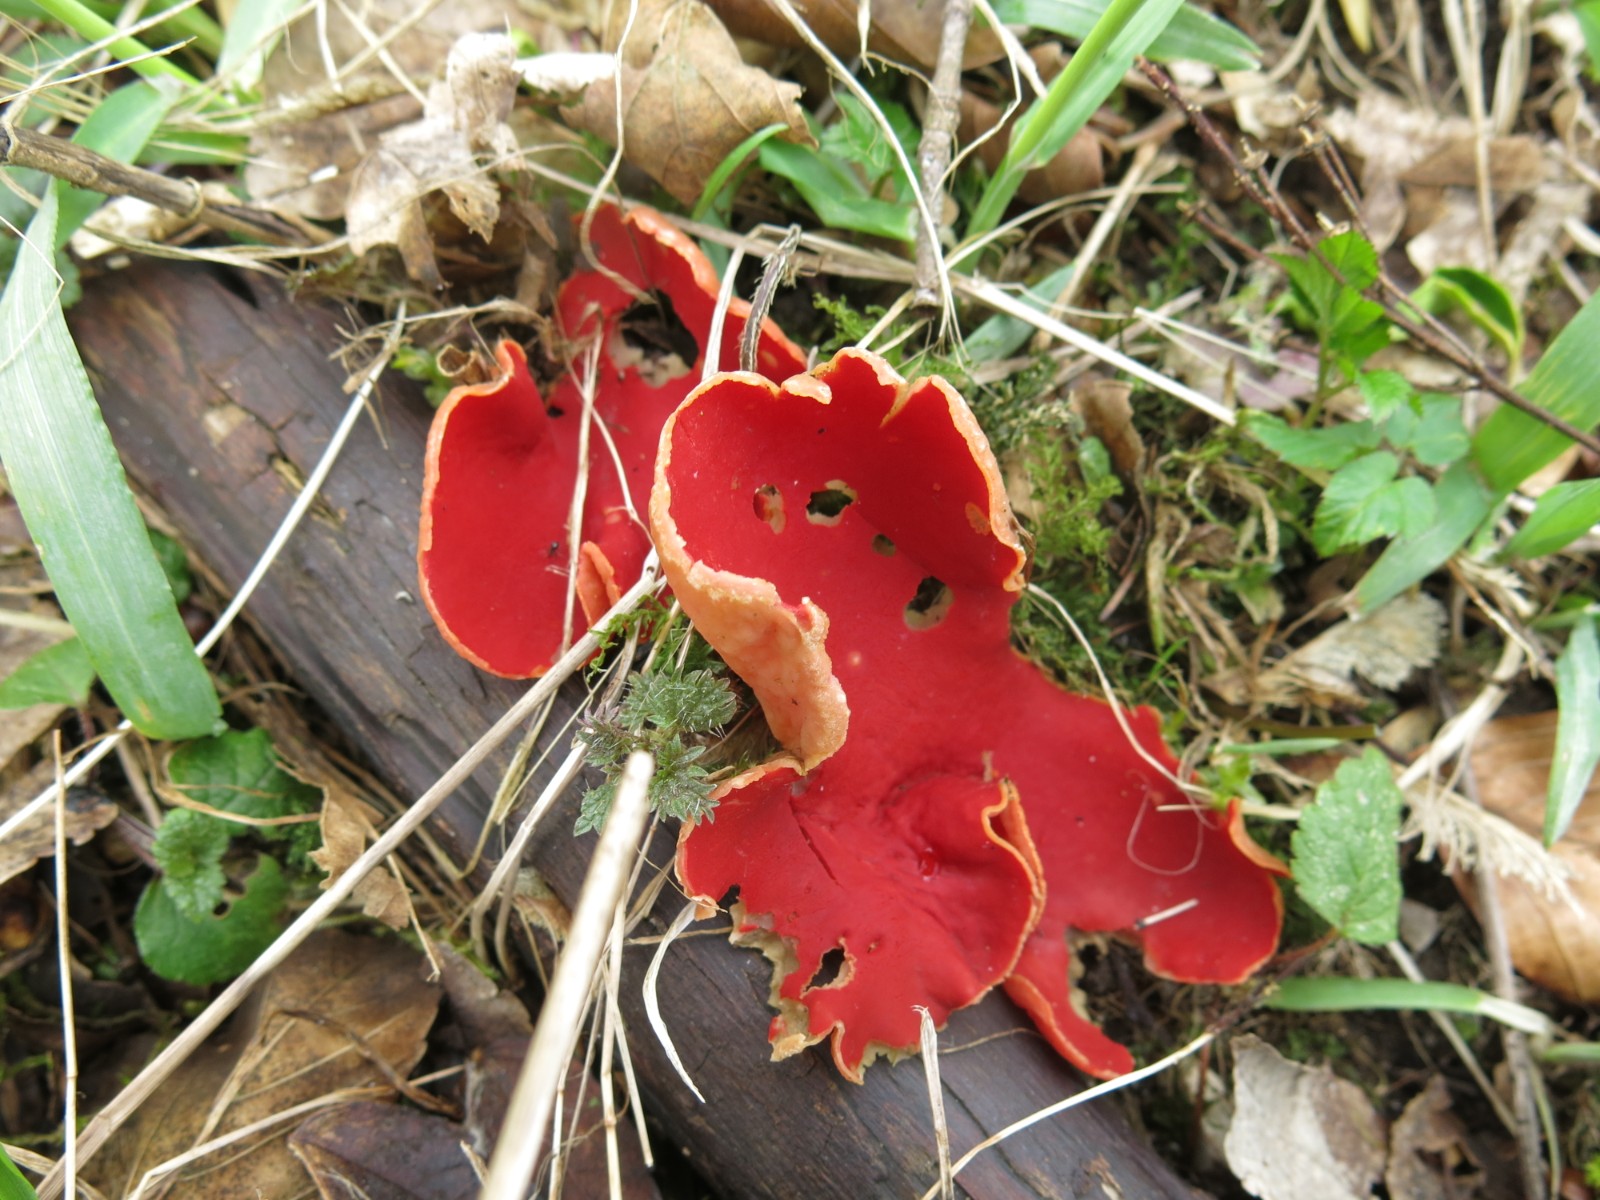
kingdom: Fungi
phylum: Ascomycota
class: Pezizomycetes
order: Pezizales
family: Sarcoscyphaceae
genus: Sarcoscypha
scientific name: Sarcoscypha austriaca
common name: krølhåret pragtbæger
